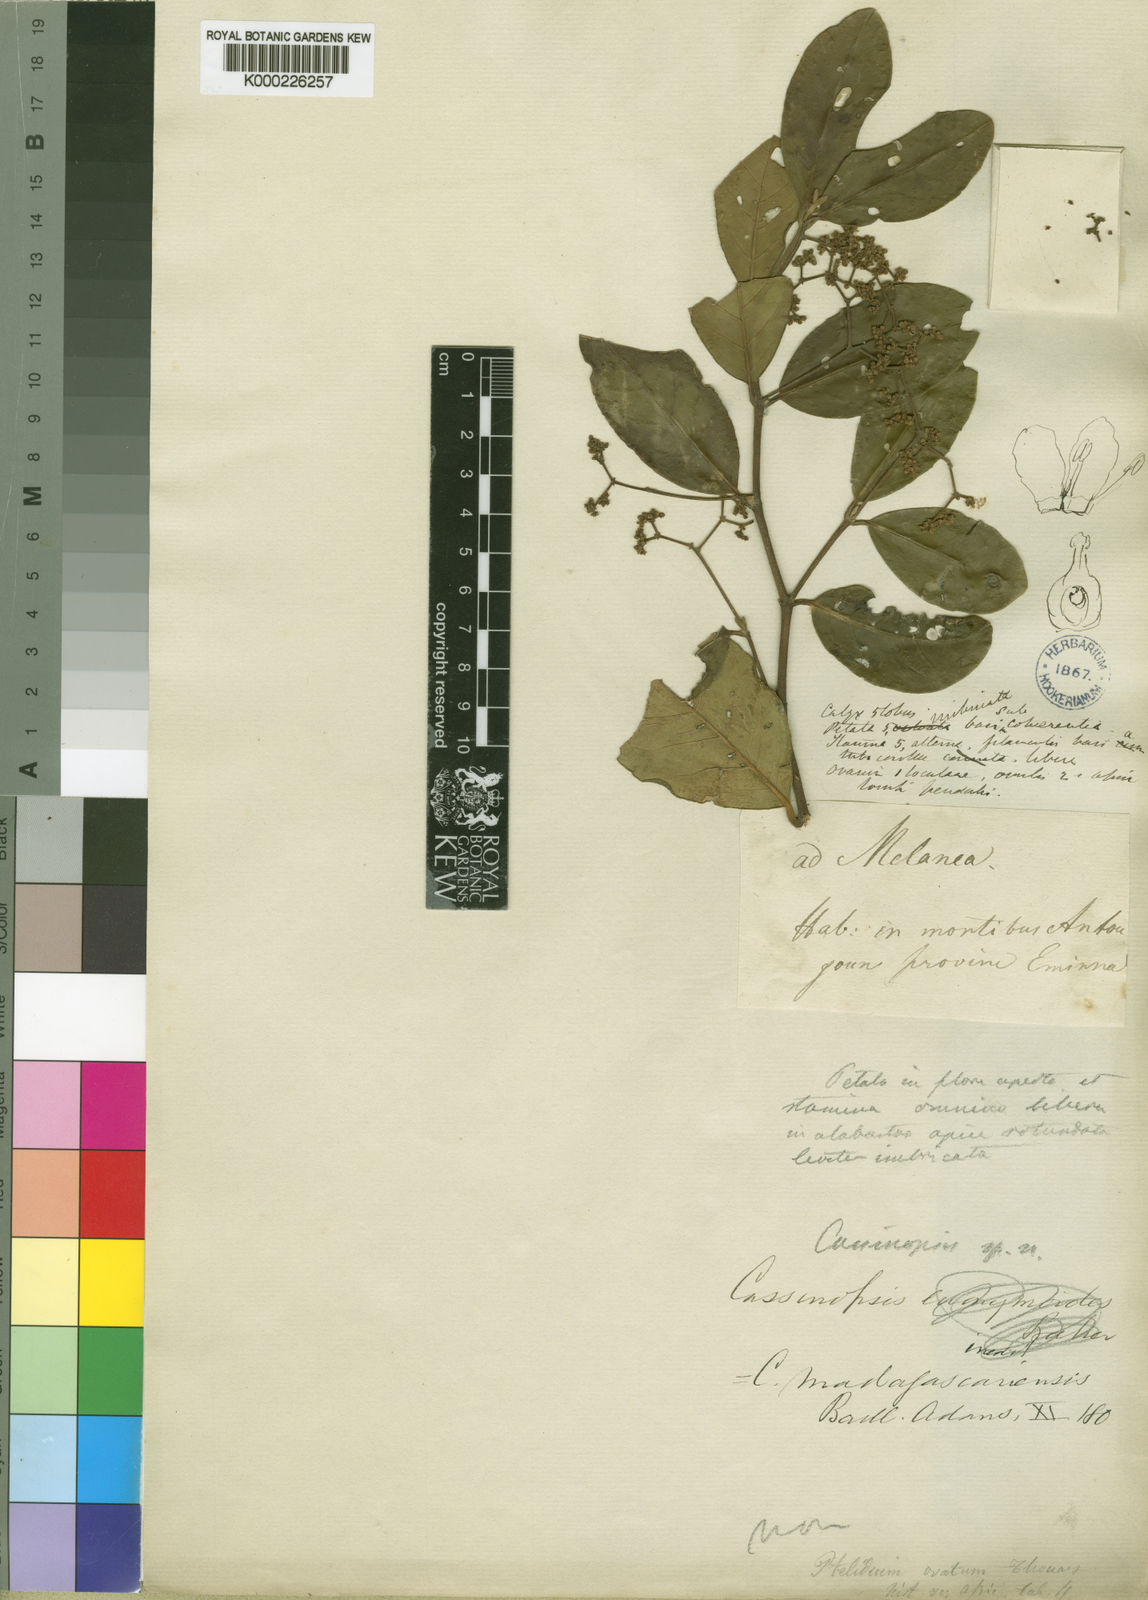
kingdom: Plantae
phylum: Tracheophyta
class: Magnoliopsida
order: Icacinales
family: Icacinaceae
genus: Cassinopsis
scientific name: Cassinopsis
